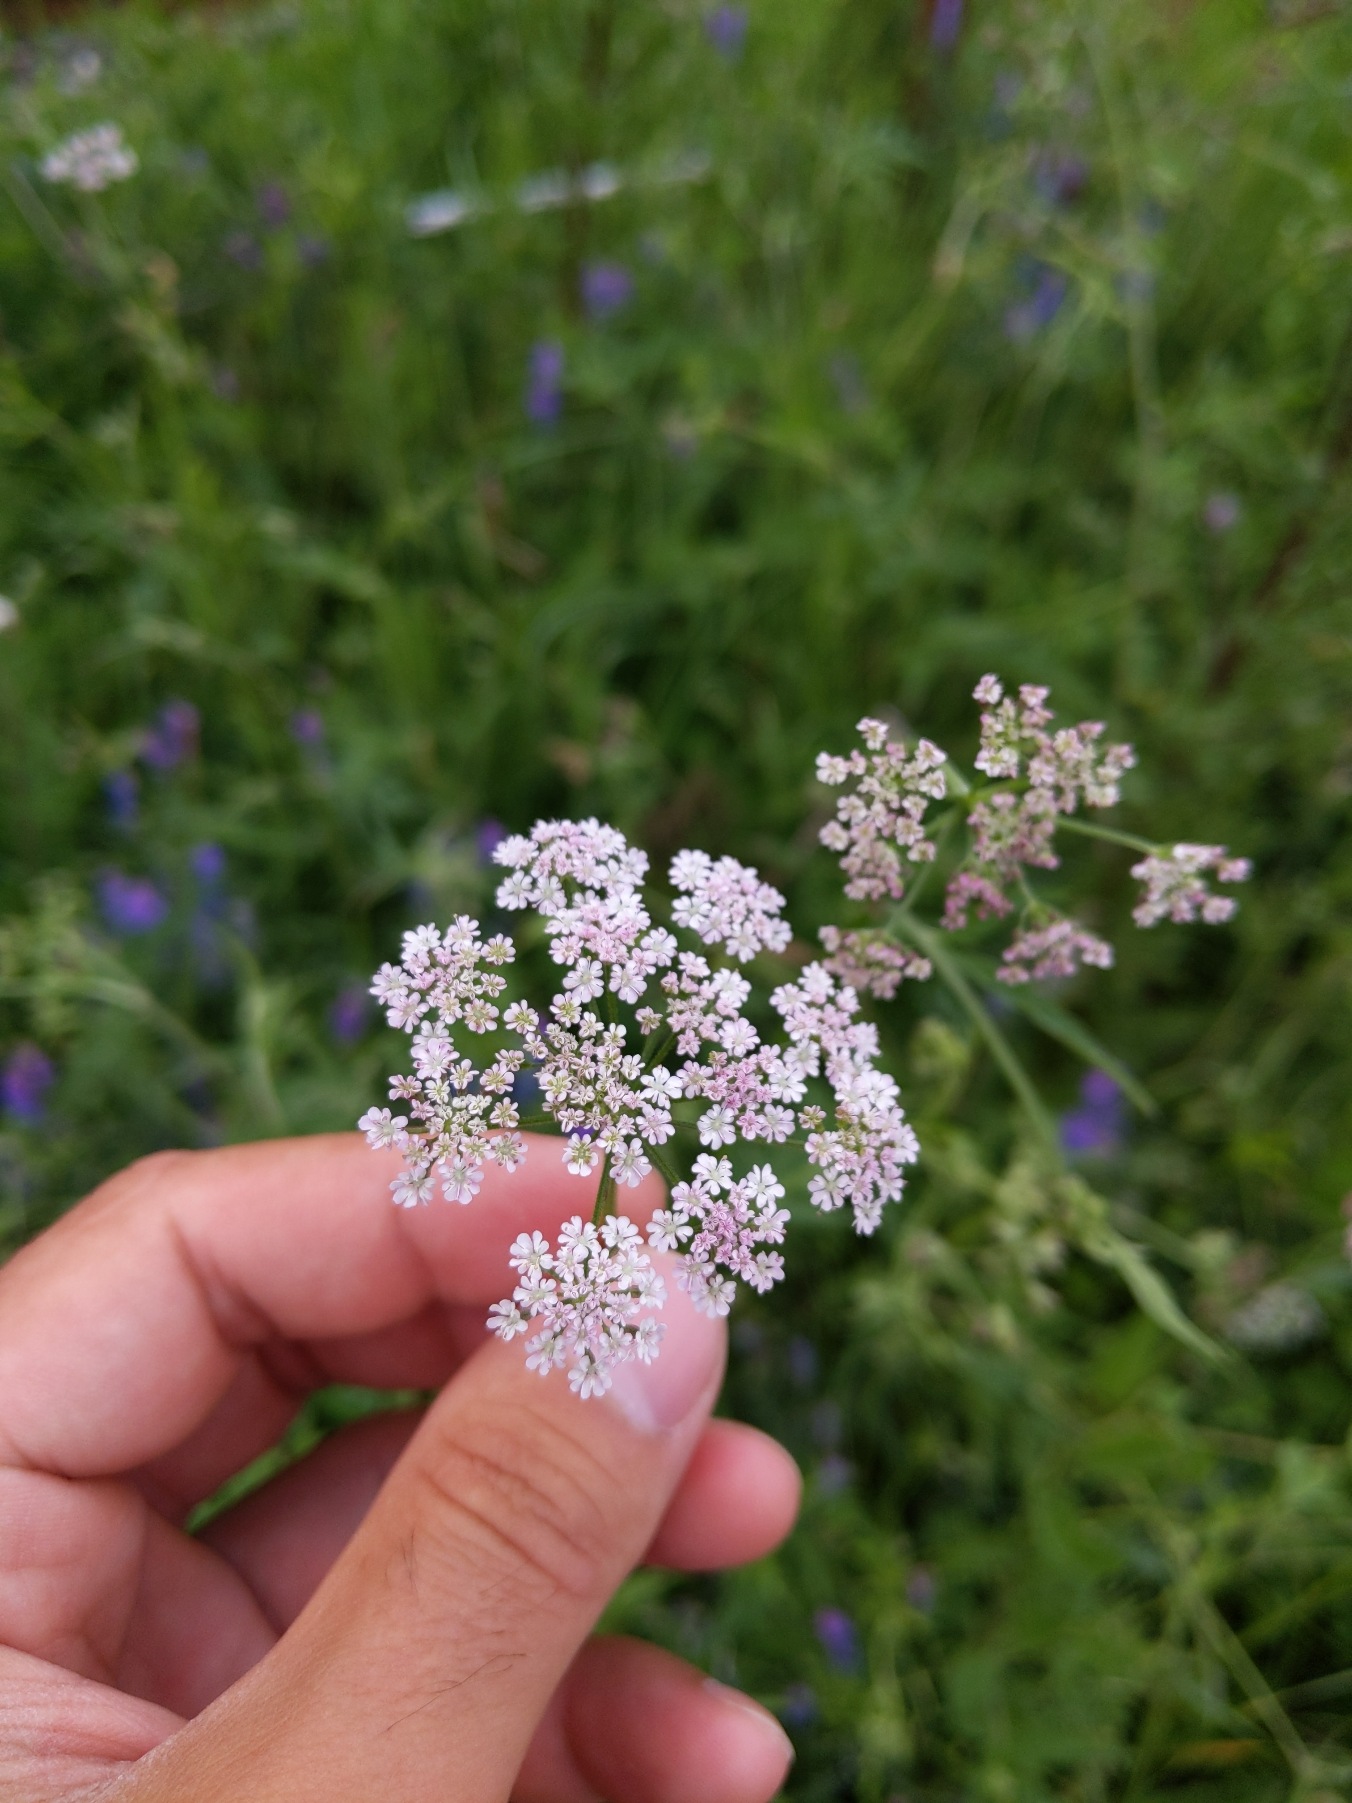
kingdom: Plantae
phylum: Tracheophyta
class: Magnoliopsida
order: Apiales
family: Apiaceae
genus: Torilis
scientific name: Torilis japonica
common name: Hvas randfrø
